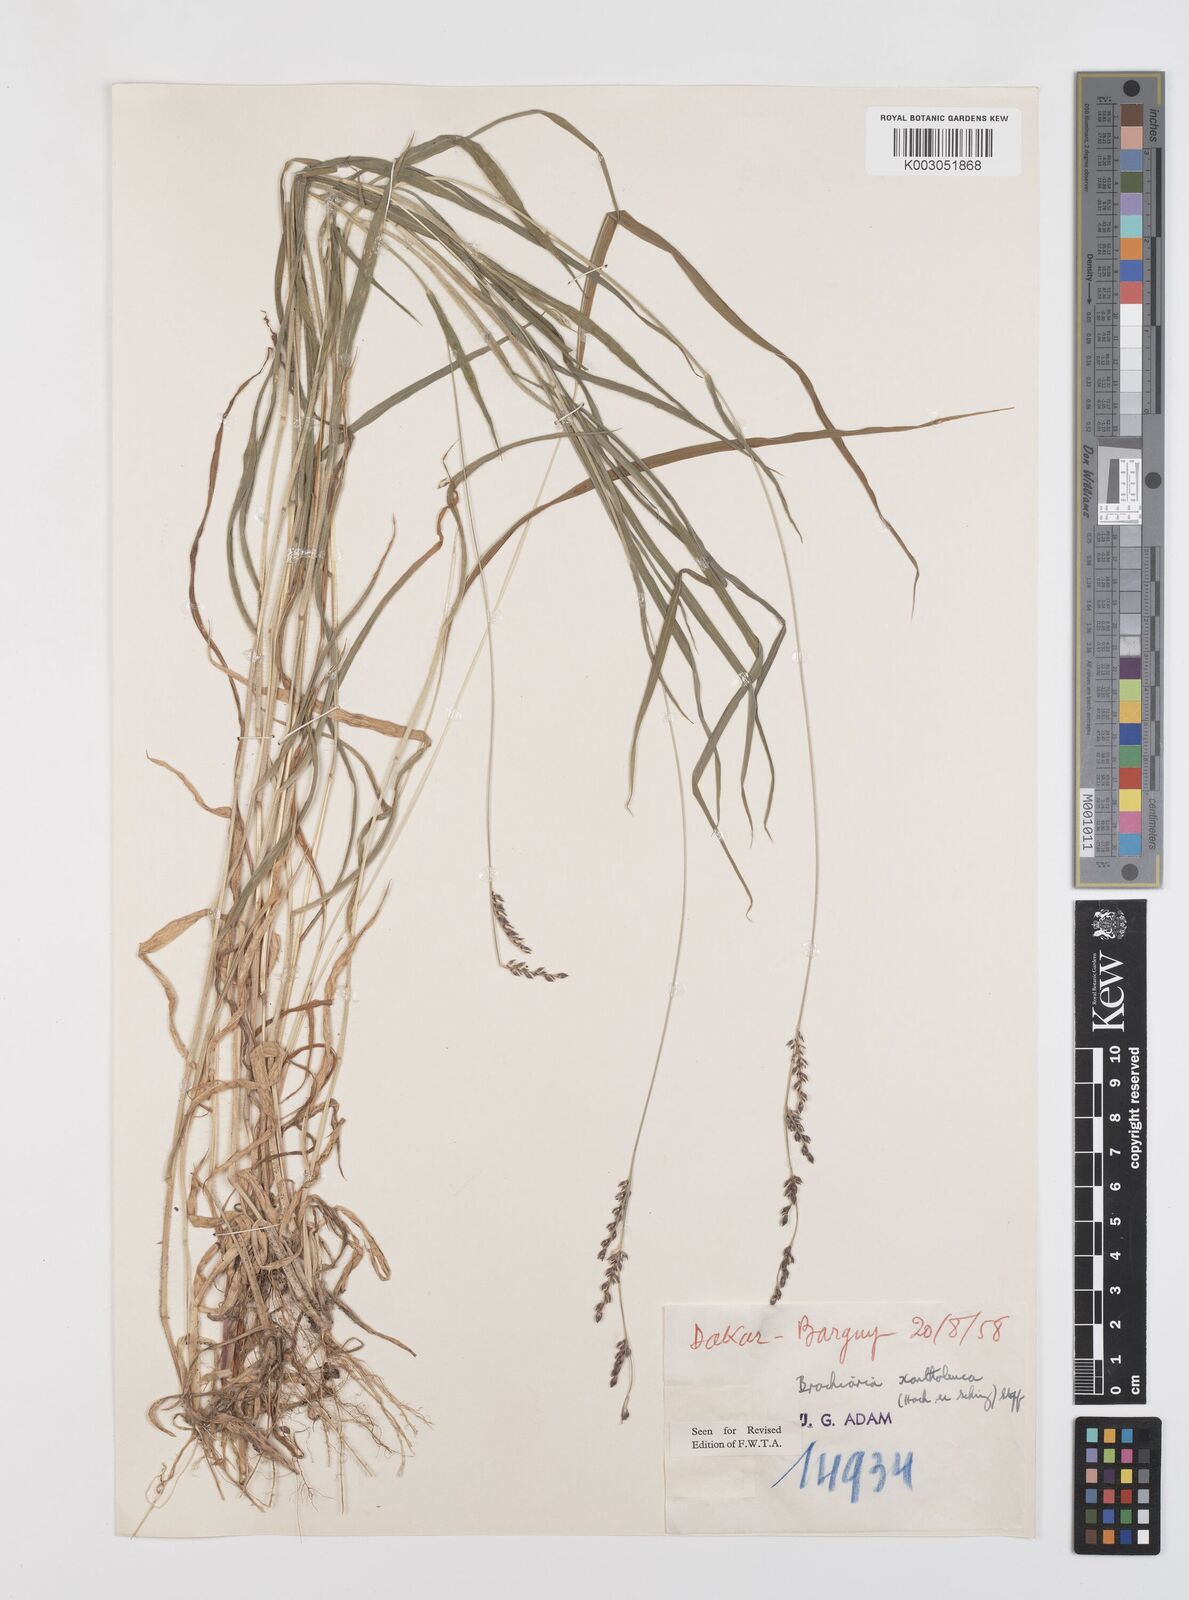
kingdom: Plantae
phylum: Tracheophyta
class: Liliopsida
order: Poales
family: Poaceae
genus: Urochloa
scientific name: Urochloa xantholeuca
